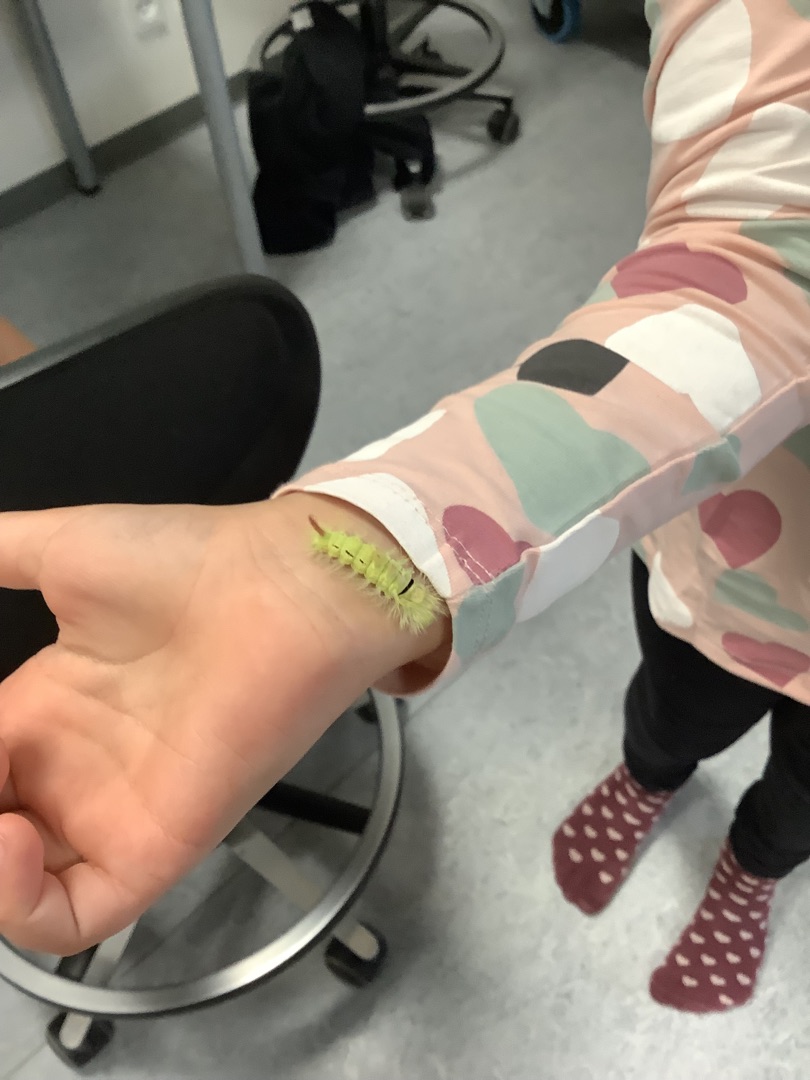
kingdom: Animalia
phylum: Arthropoda
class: Insecta
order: Lepidoptera
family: Erebidae
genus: Calliteara
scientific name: Calliteara pudibunda
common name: Bøgenonne
